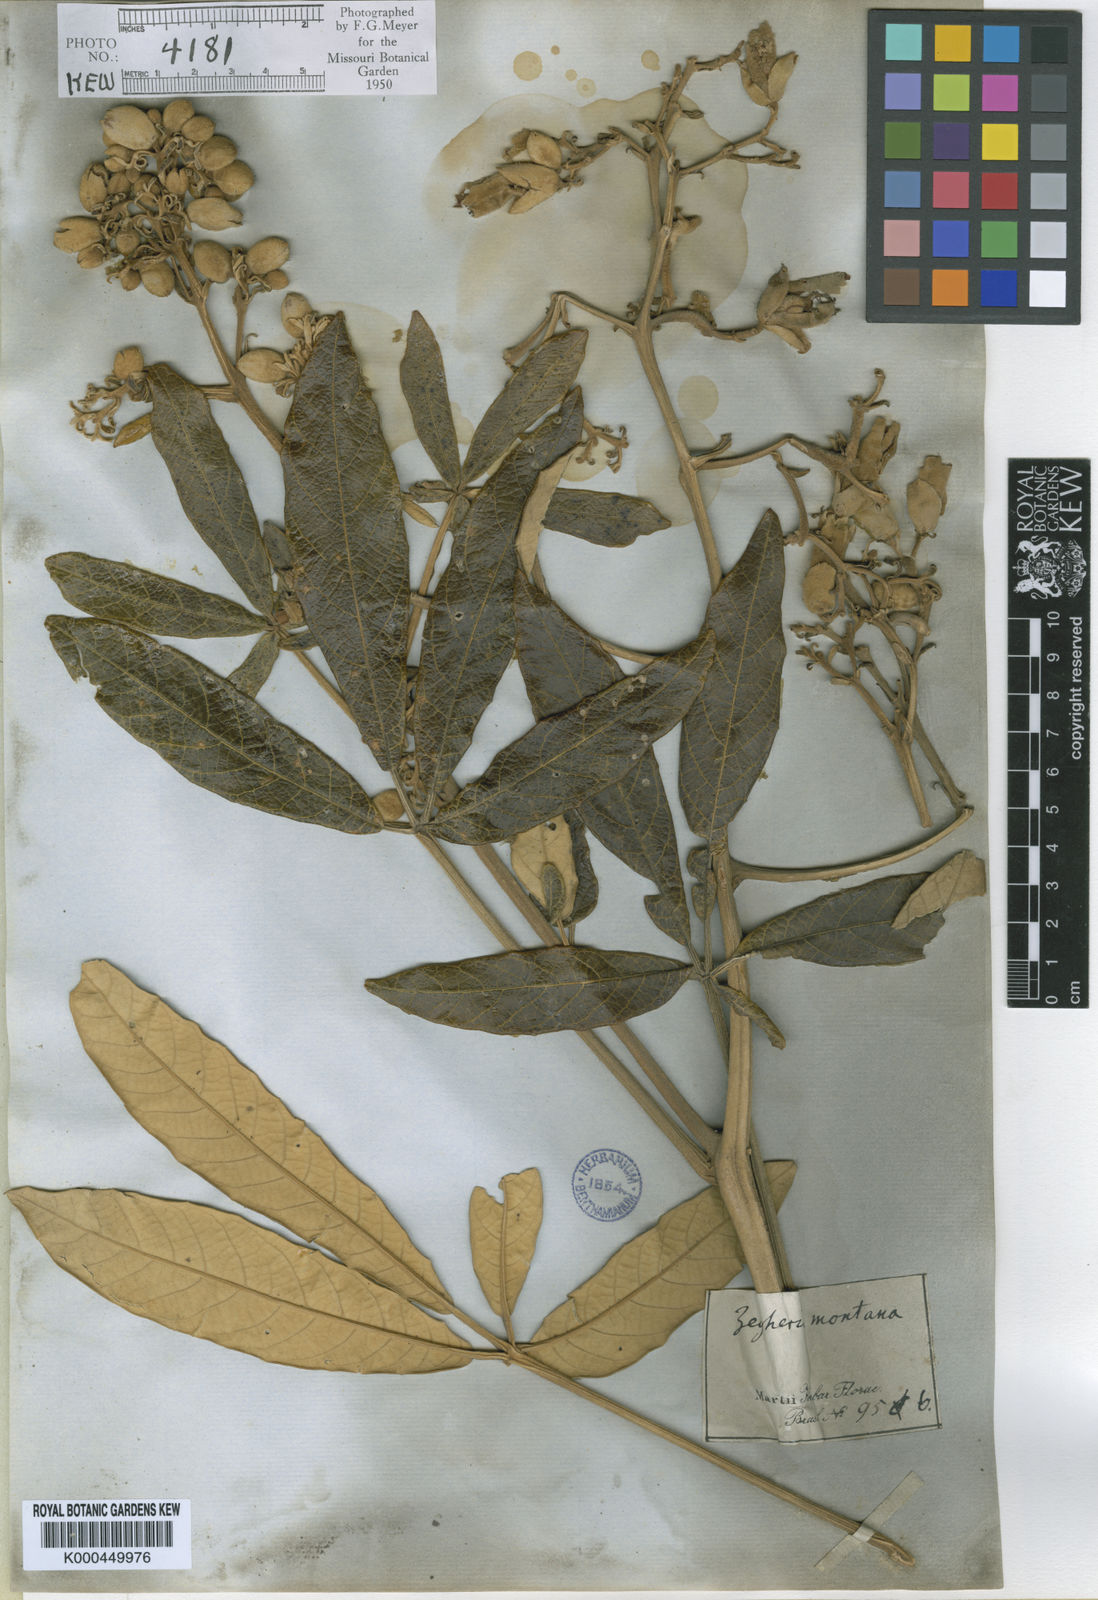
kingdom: Plantae
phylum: Tracheophyta
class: Magnoliopsida
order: Lamiales
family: Bignoniaceae
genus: Zeyheria
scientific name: Zeyheria
